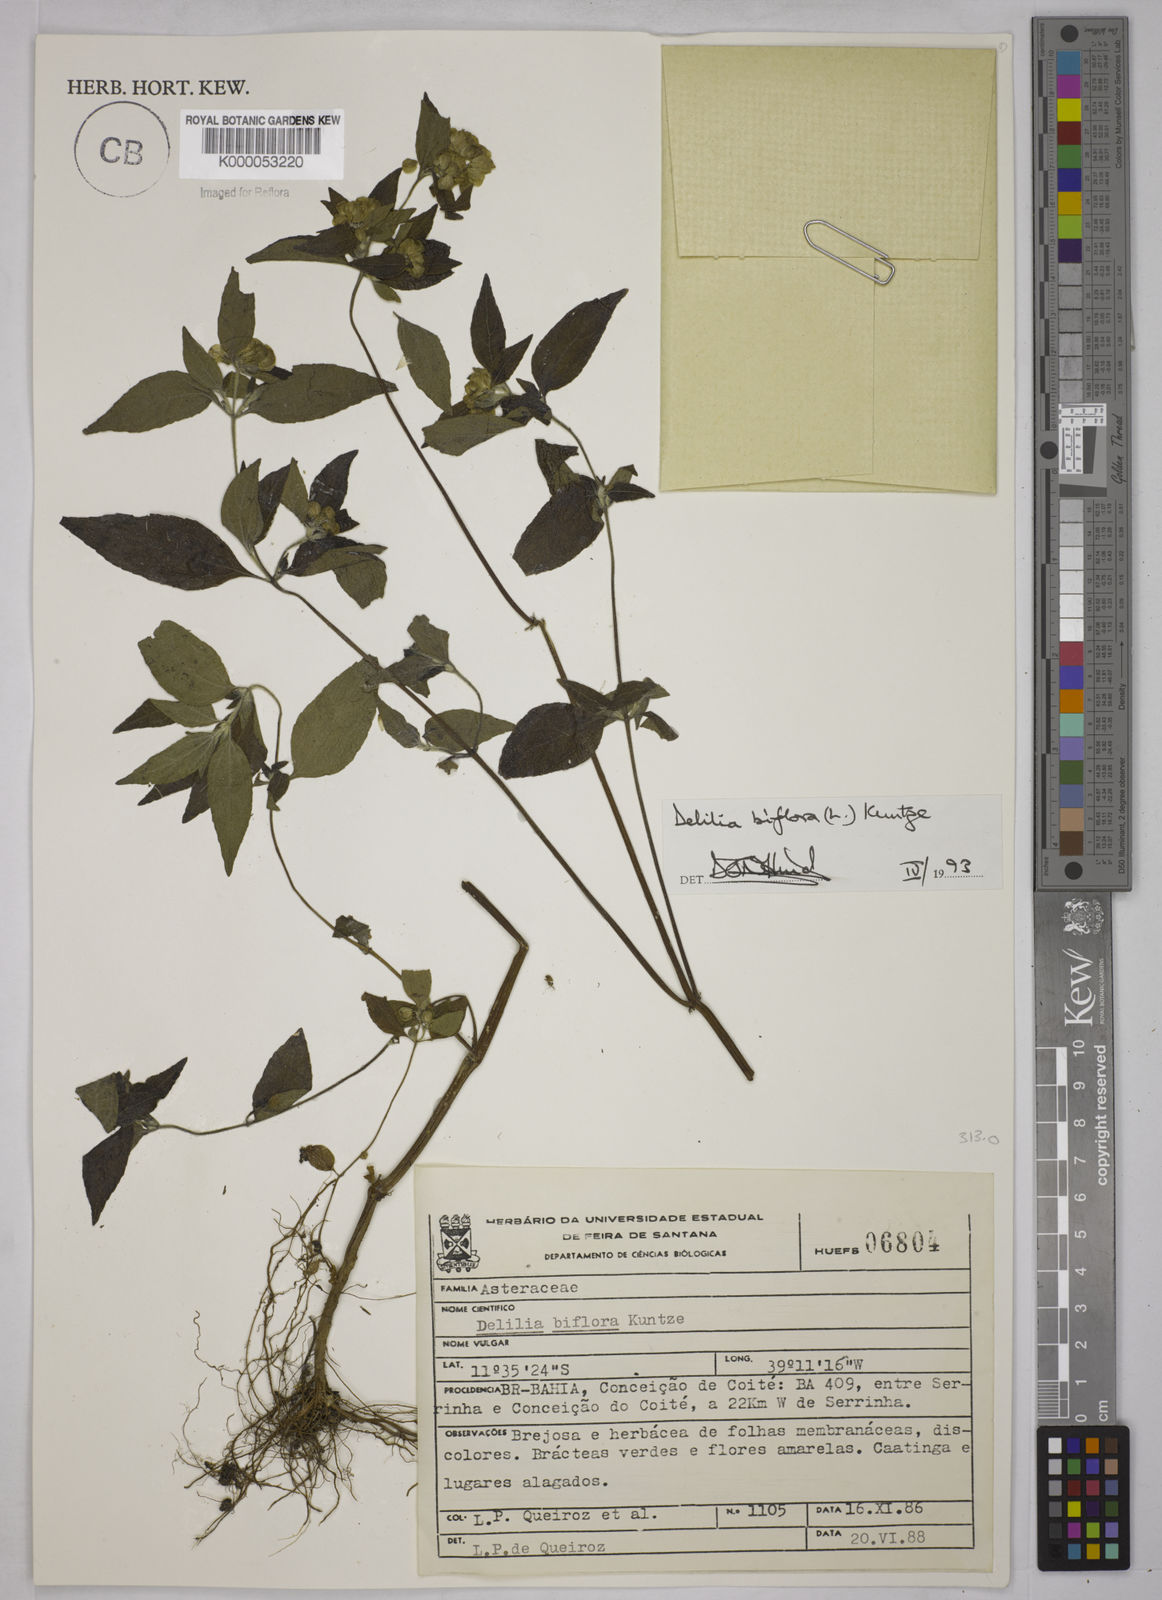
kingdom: Plantae
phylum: Tracheophyta
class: Magnoliopsida
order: Asterales
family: Asteraceae
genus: Delilia
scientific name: Delilia biflora
